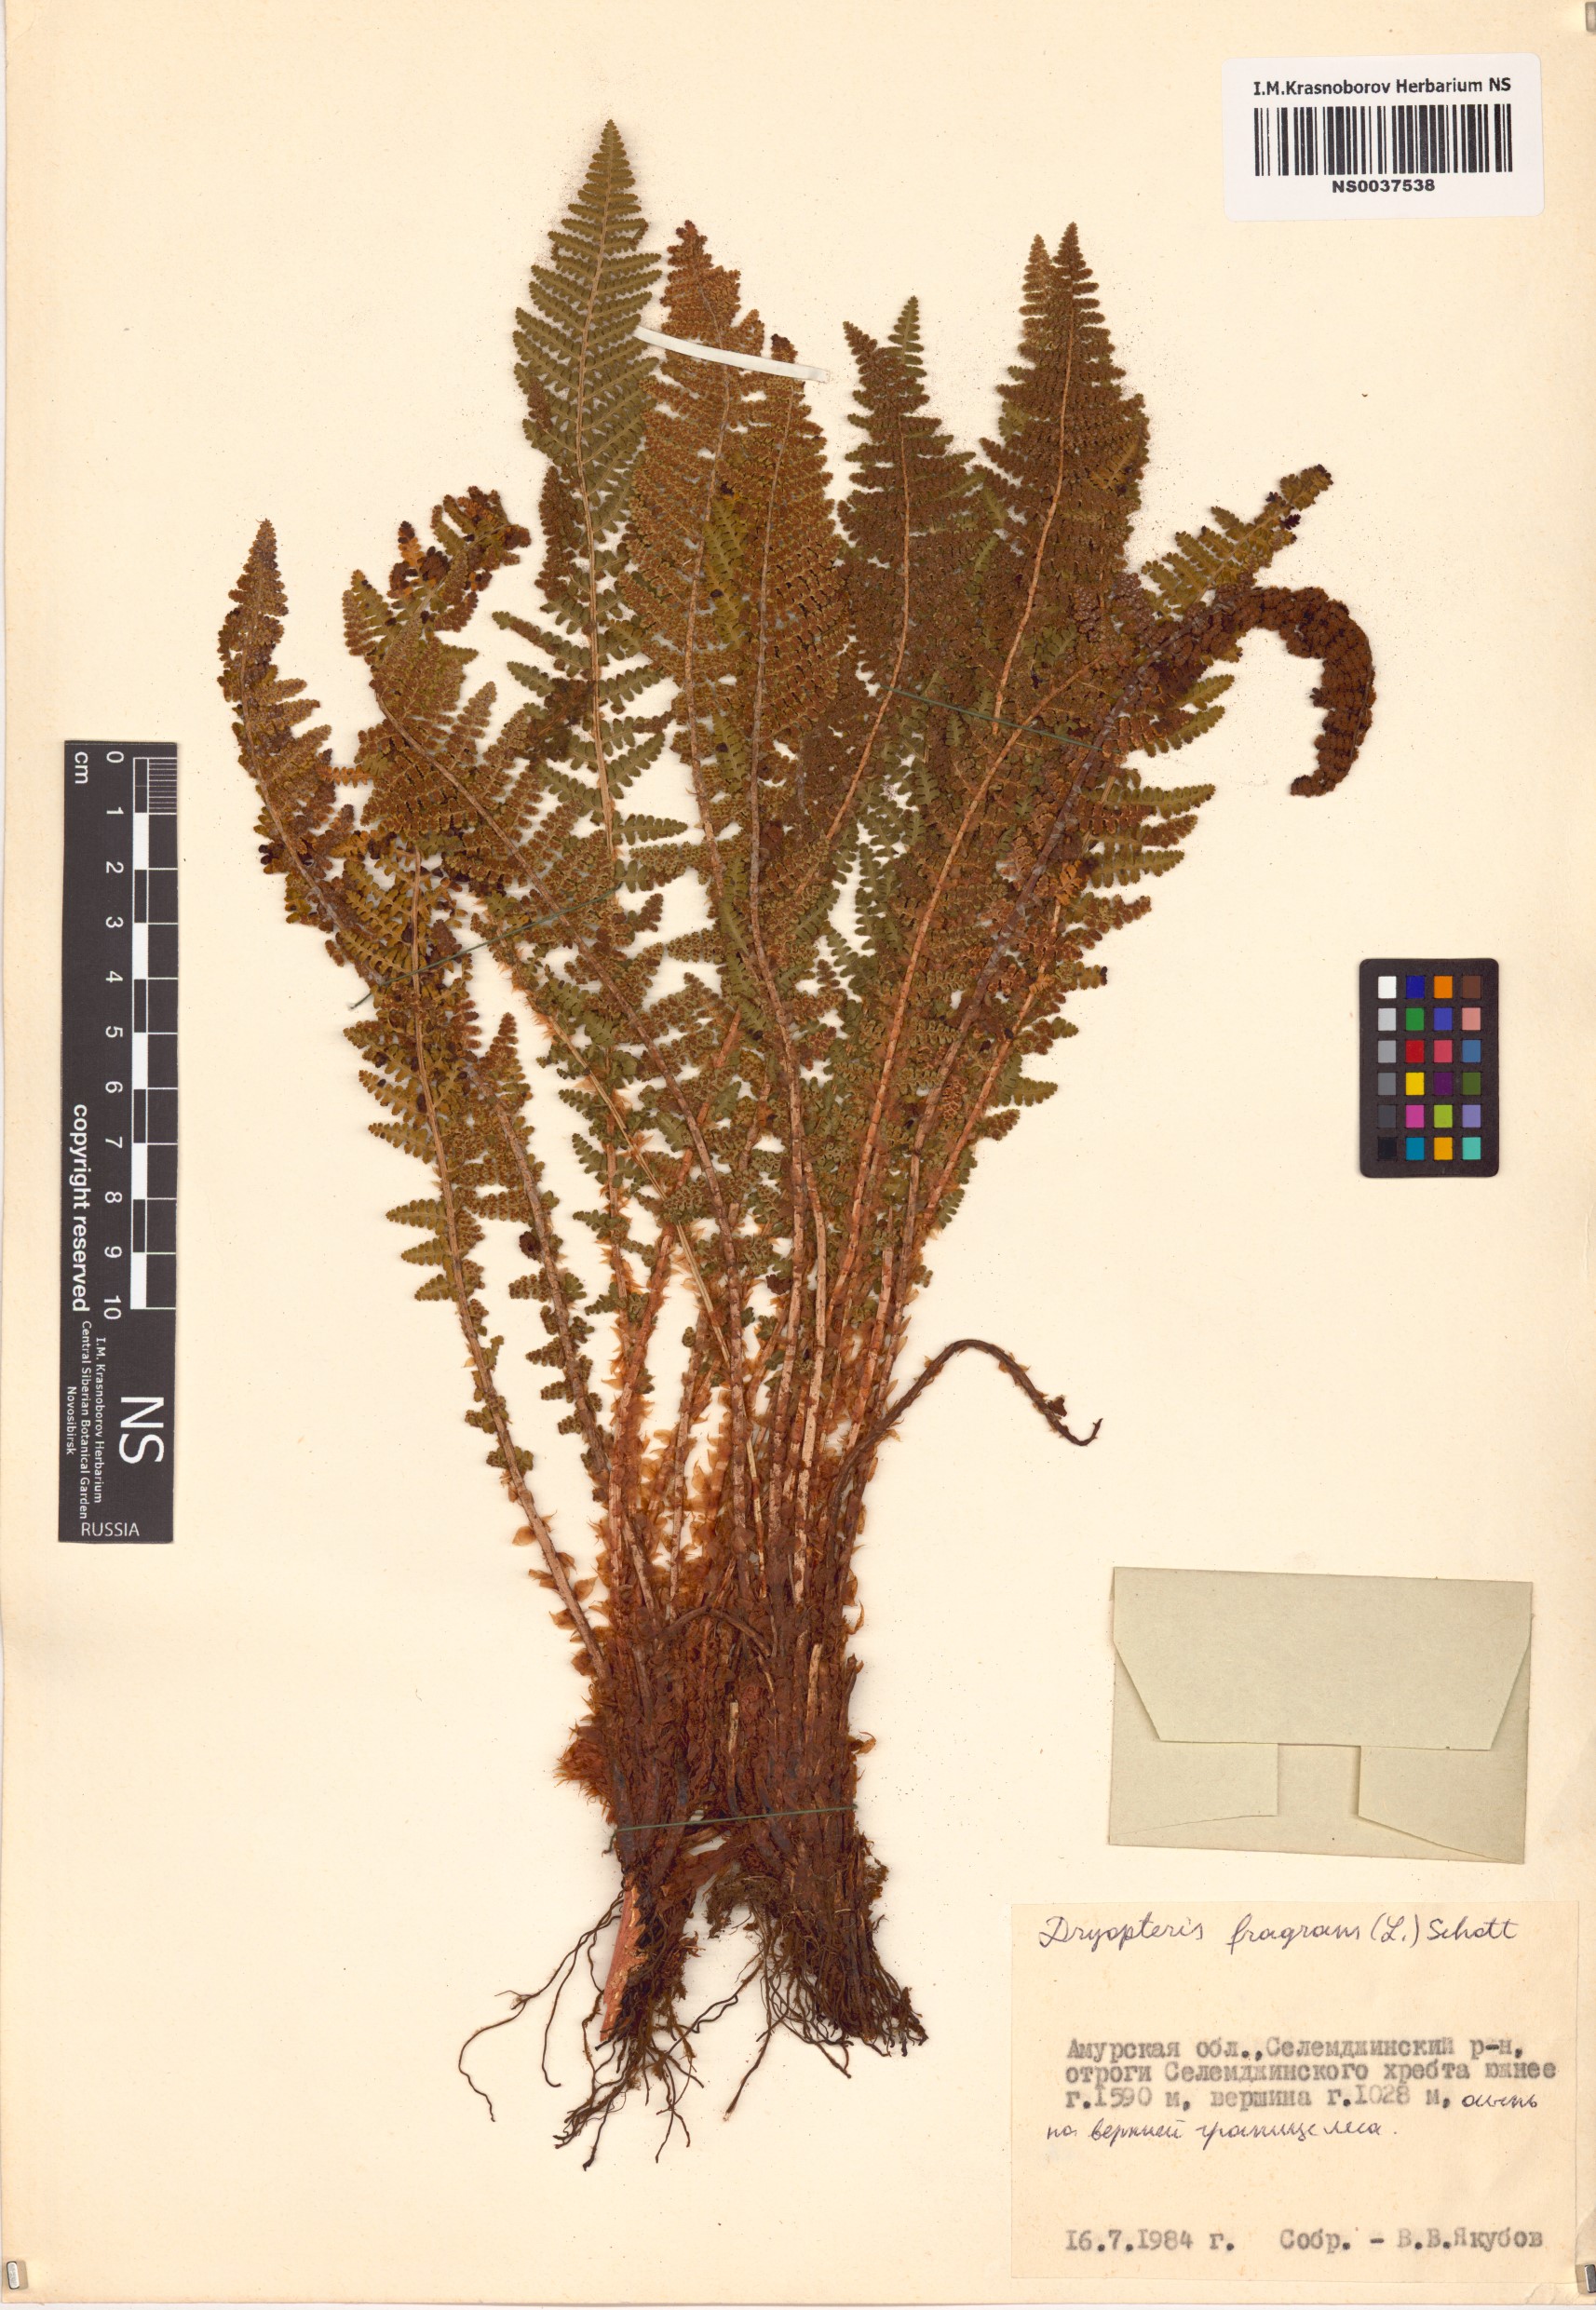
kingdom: Plantae
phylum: Tracheophyta
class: Polypodiopsida
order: Polypodiales
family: Dryopteridaceae
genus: Dryopteris
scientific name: Dryopteris fragrans
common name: Fragrant wood fern
